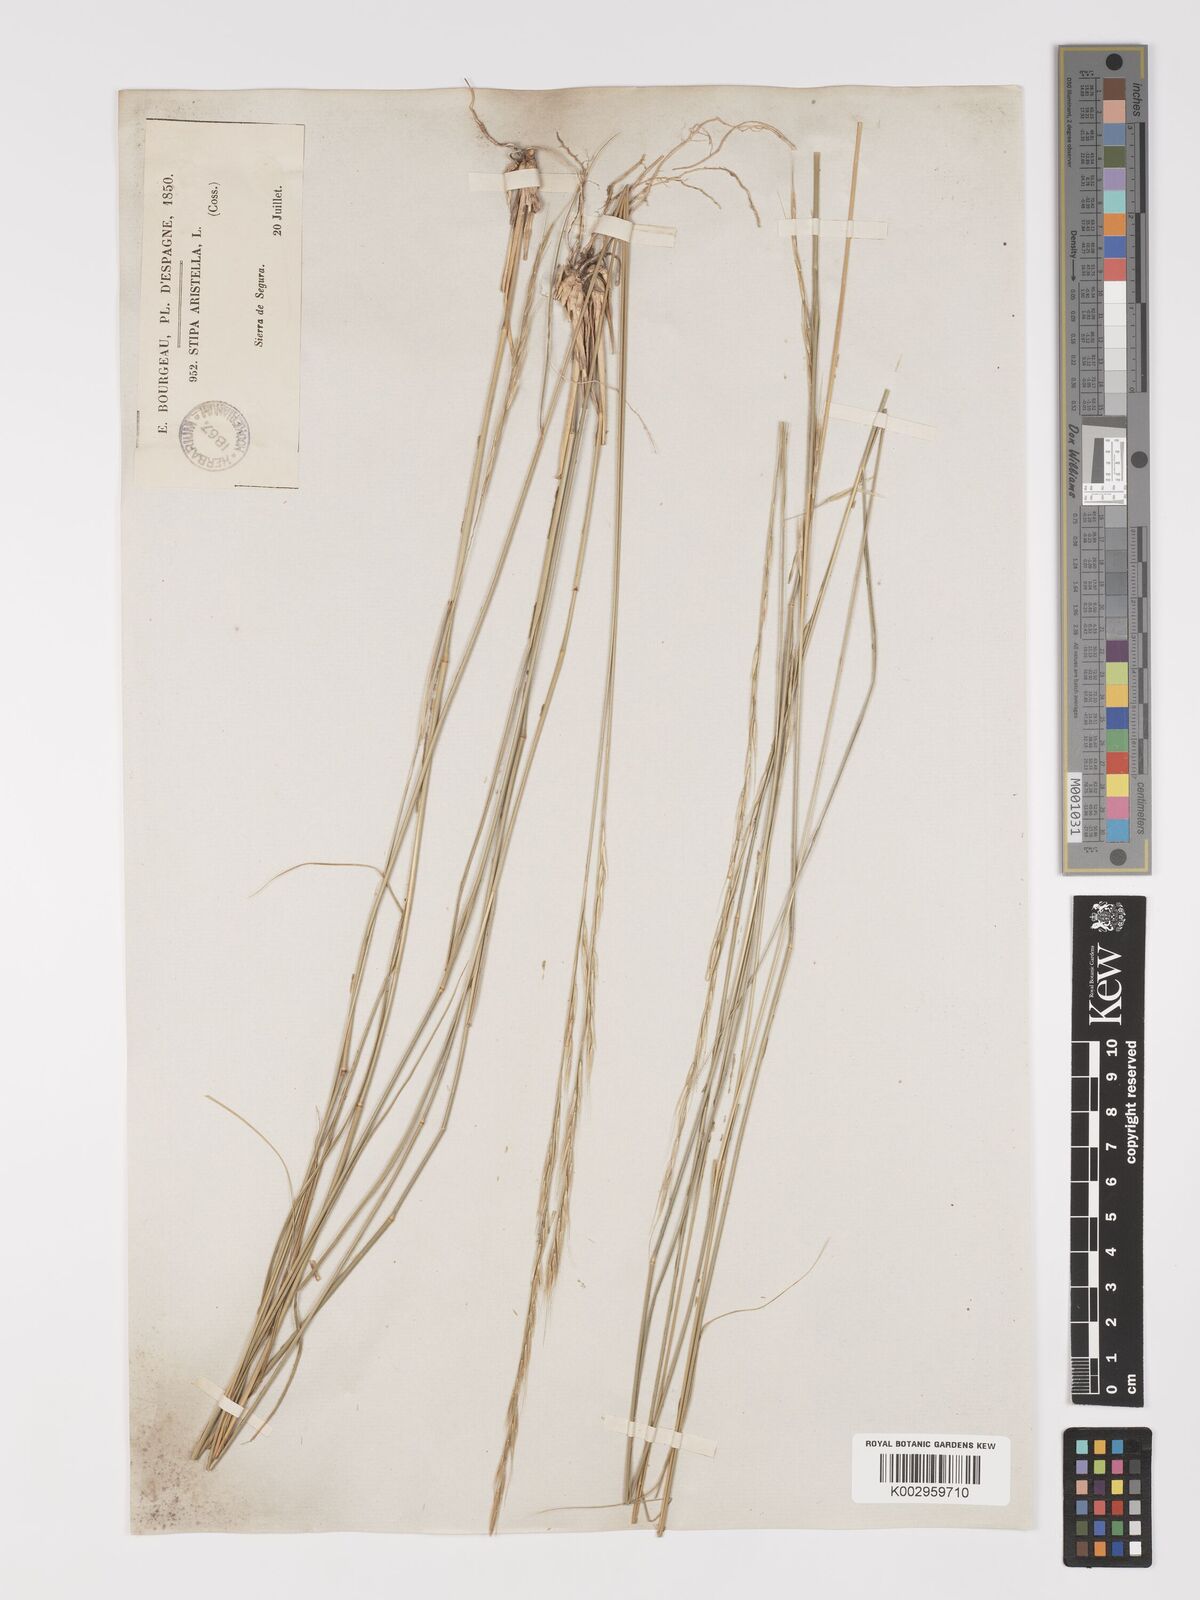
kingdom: Plantae
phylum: Tracheophyta
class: Liliopsida
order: Poales
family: Poaceae
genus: Achnatherum
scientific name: Achnatherum bromoides
